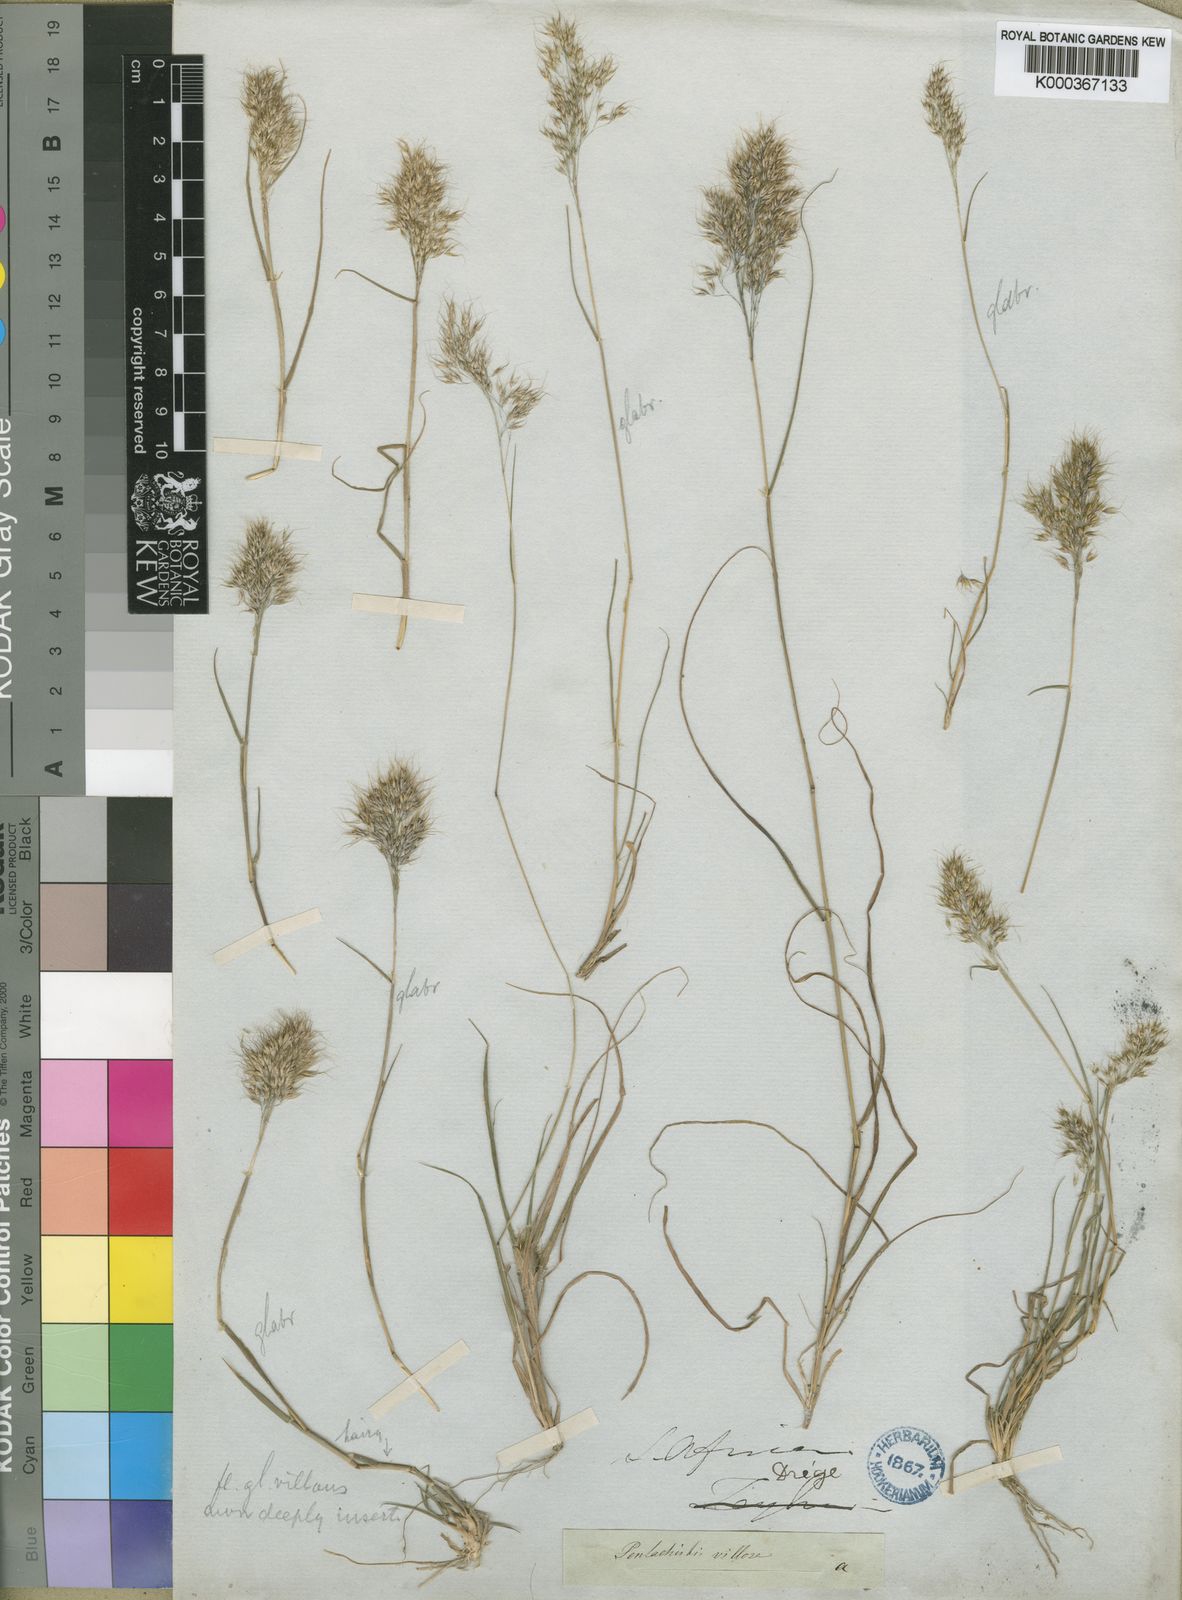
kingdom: Plantae
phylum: Tracheophyta
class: Liliopsida
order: Poales
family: Poaceae
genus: Pentameris
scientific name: Pentameris triseta
